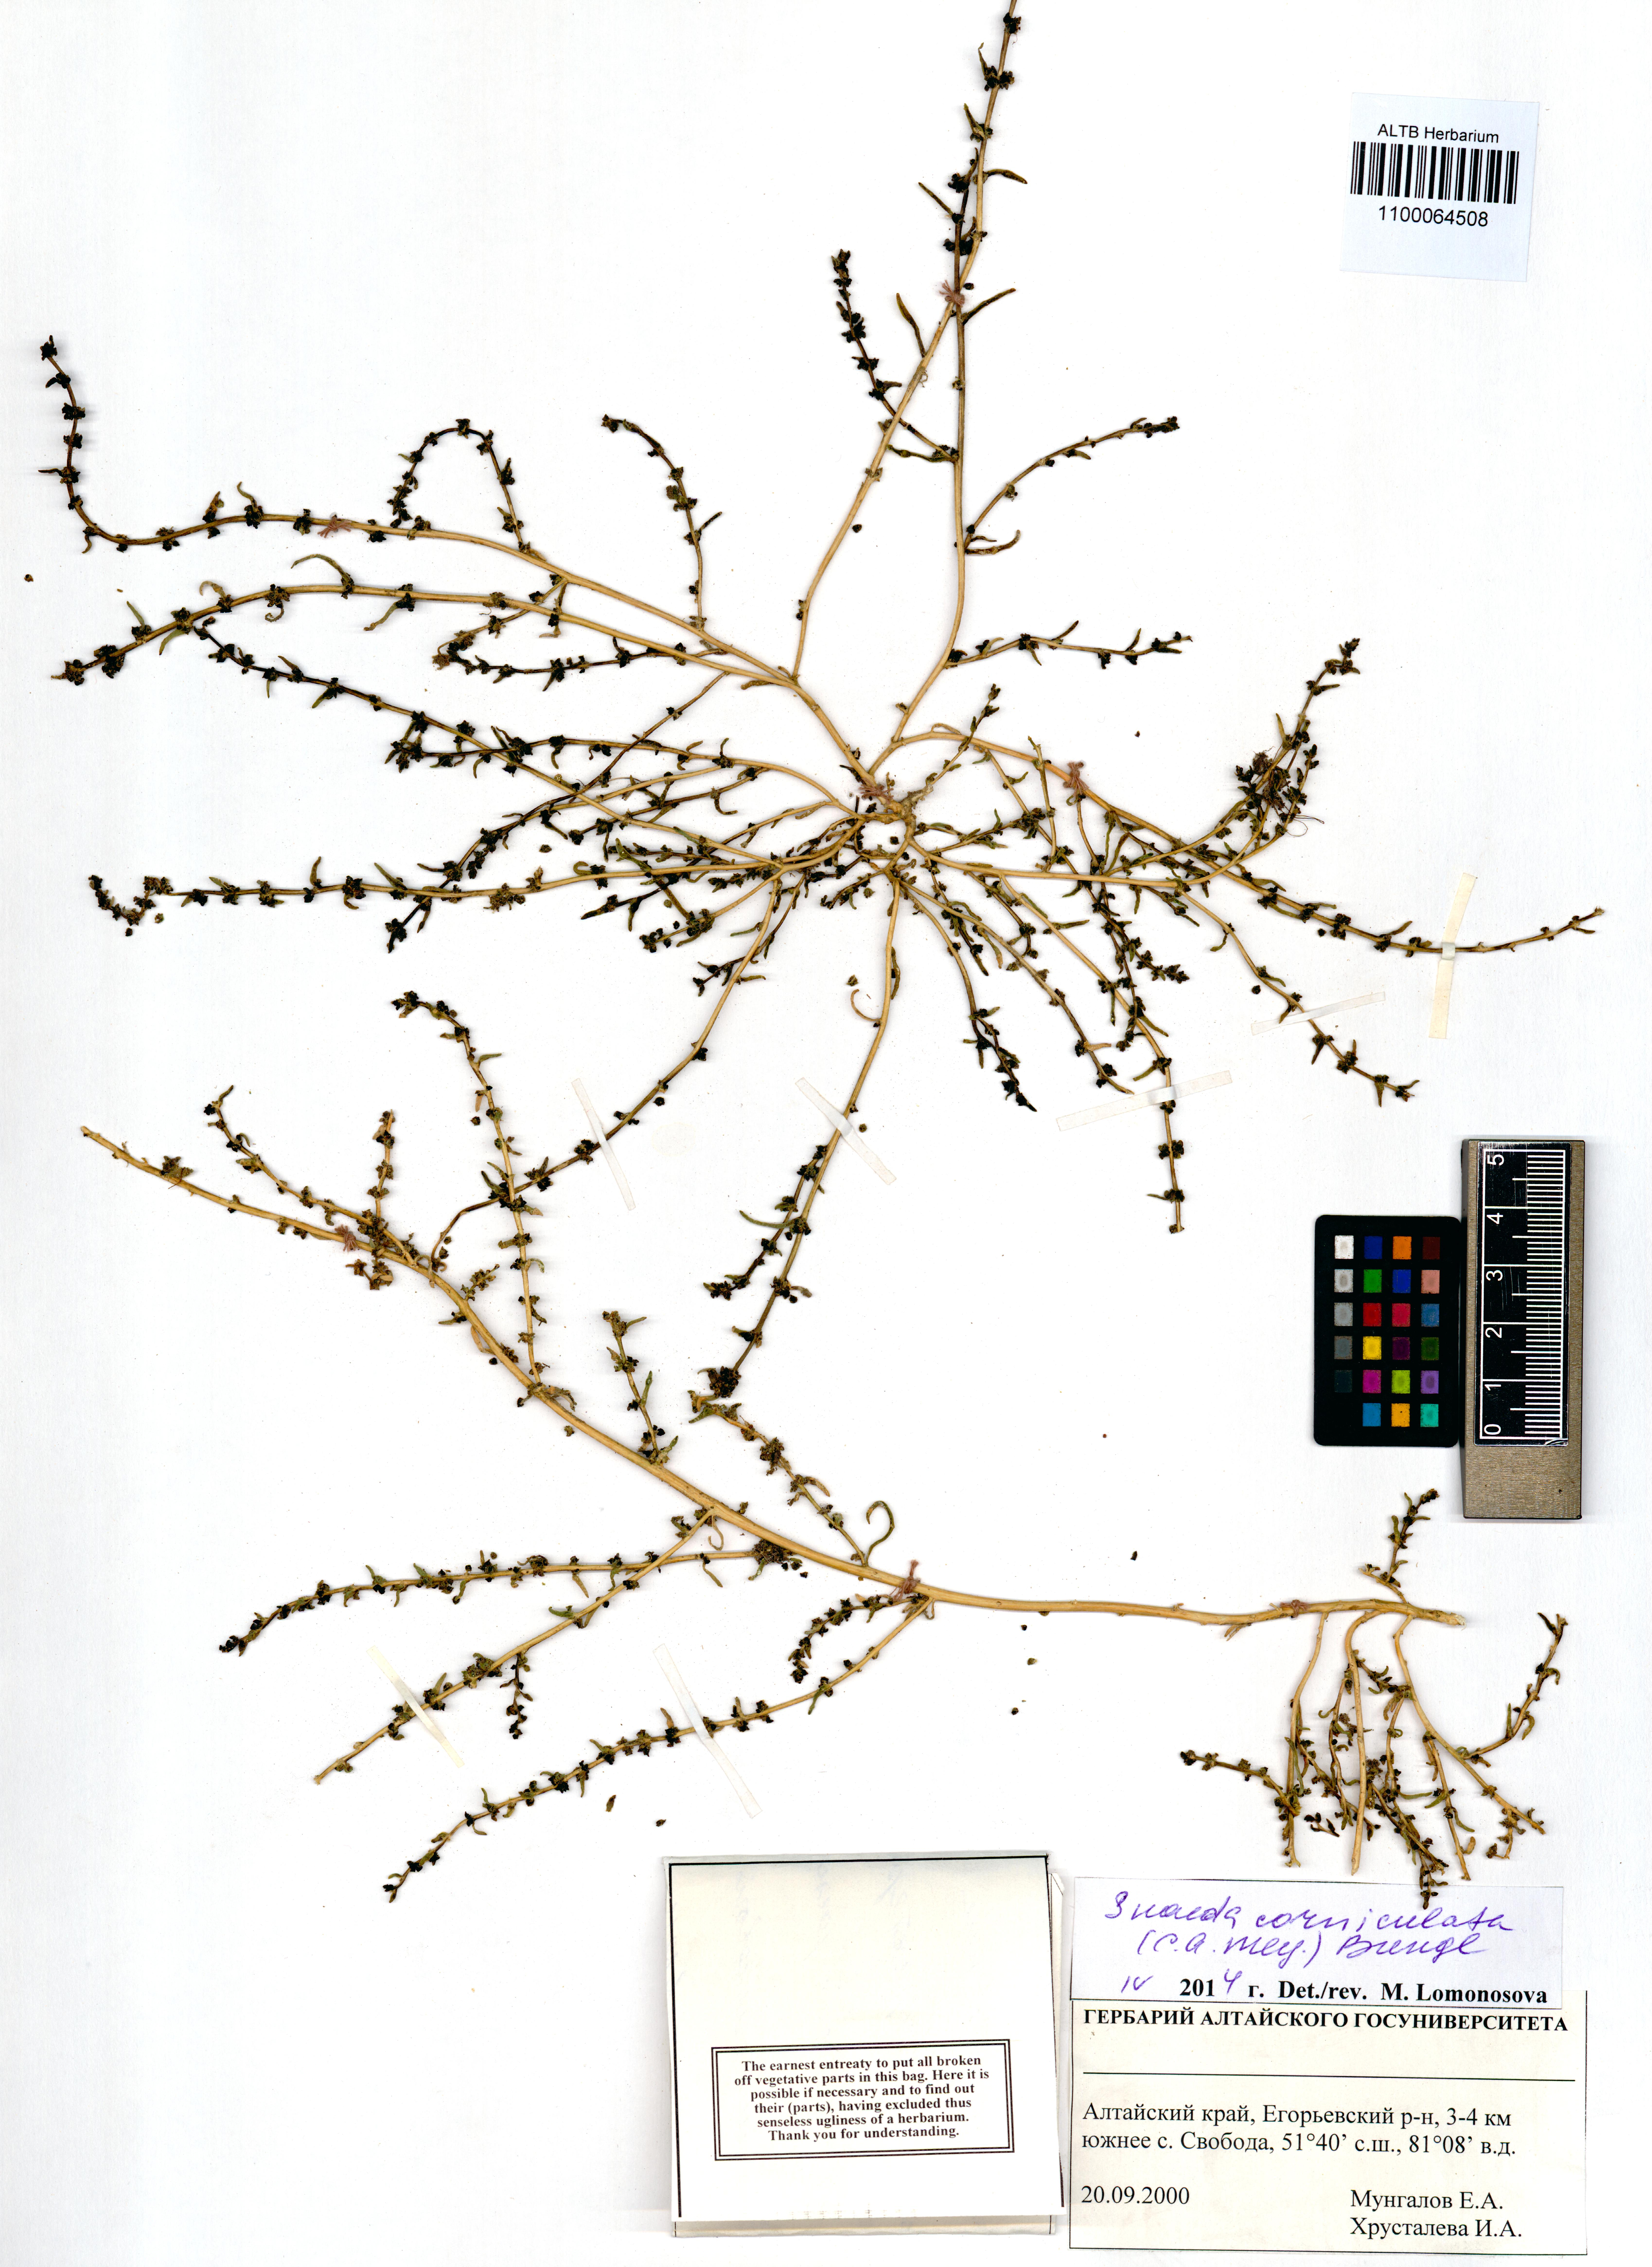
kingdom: Plantae
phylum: Tracheophyta
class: Magnoliopsida
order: Caryophyllales
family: Amaranthaceae
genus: Suaeda
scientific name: Suaeda corniculata
